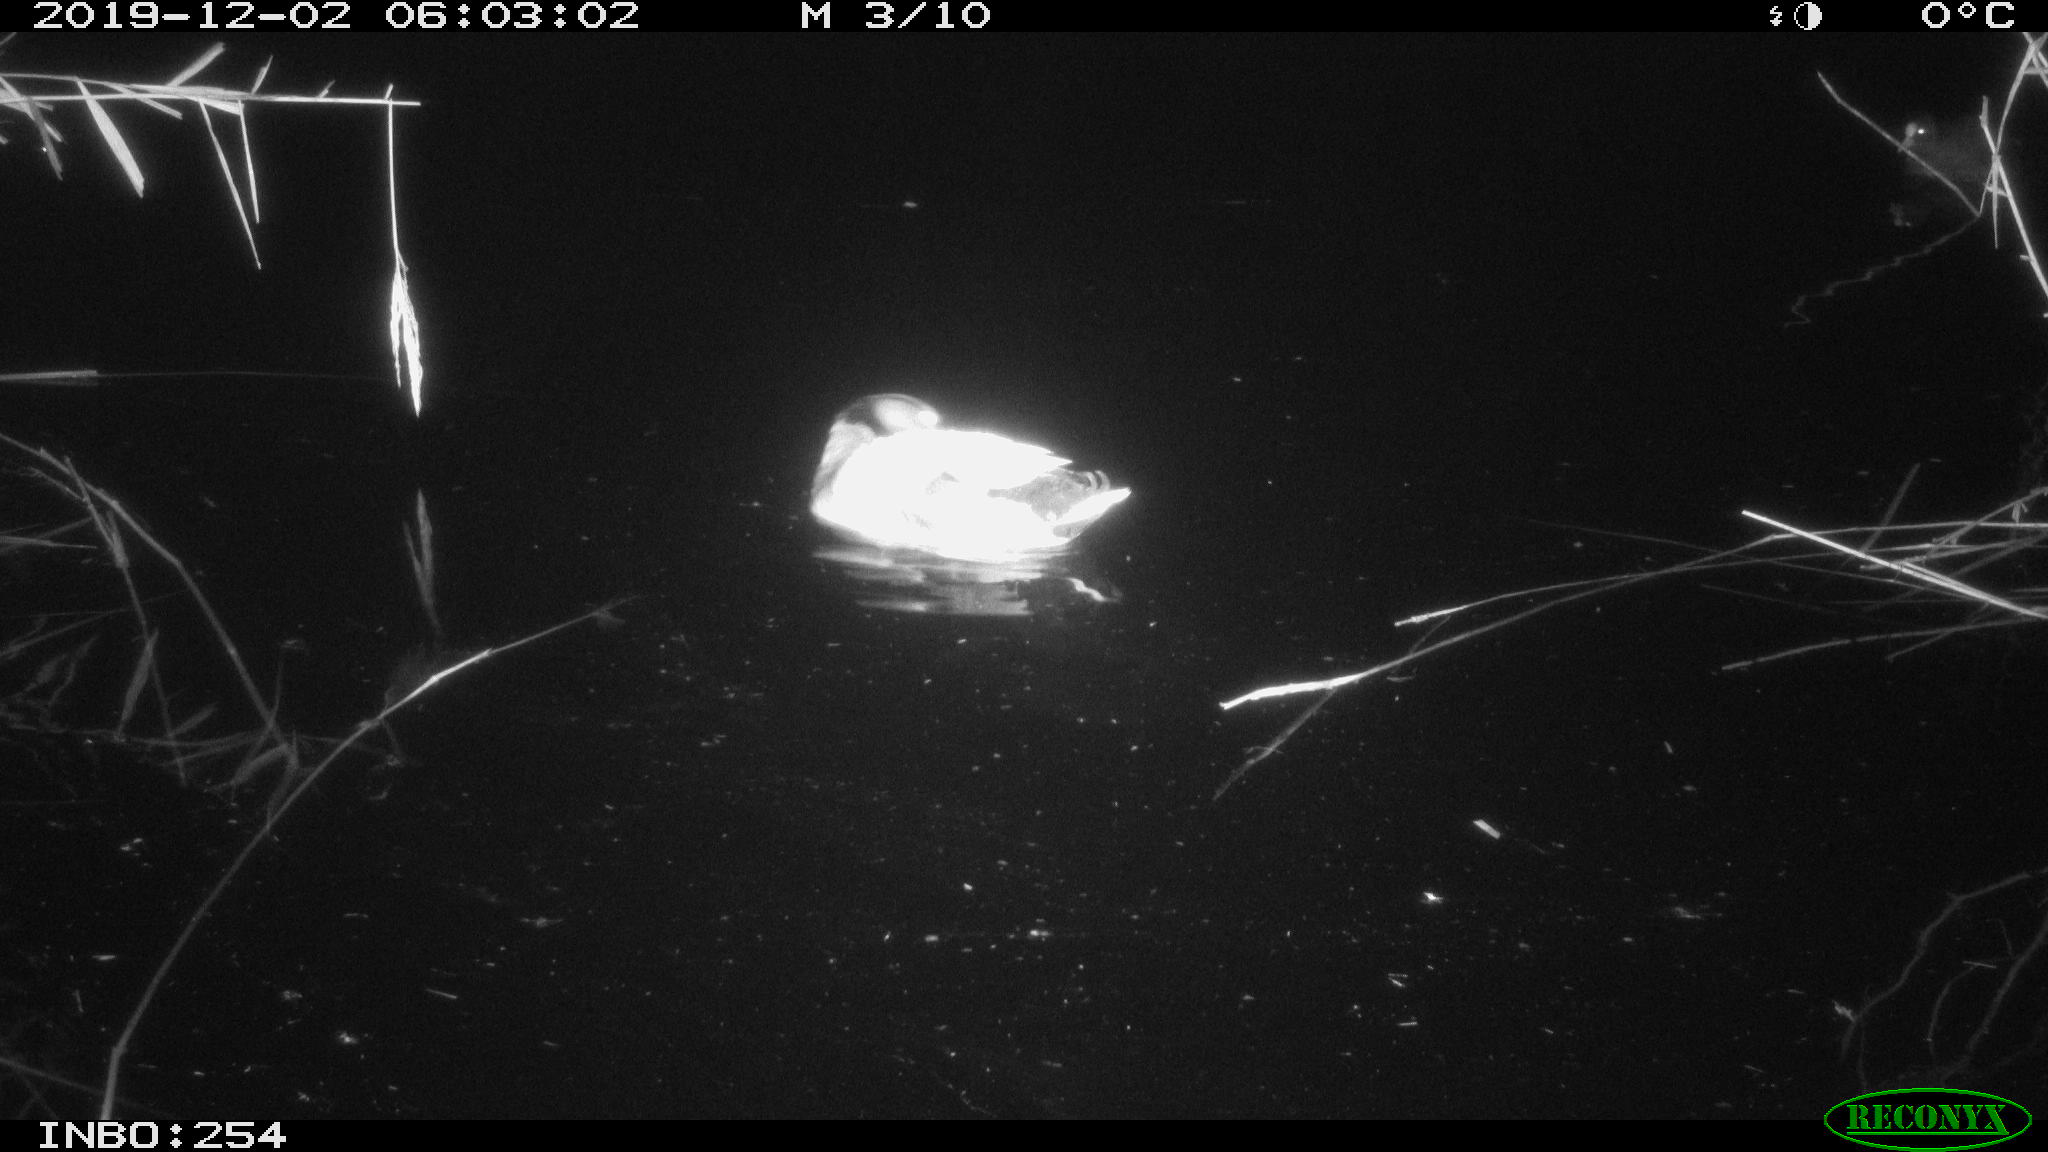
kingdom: Animalia
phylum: Chordata
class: Aves
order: Anseriformes
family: Anatidae
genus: Anas
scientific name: Anas platyrhynchos
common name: Mallard
